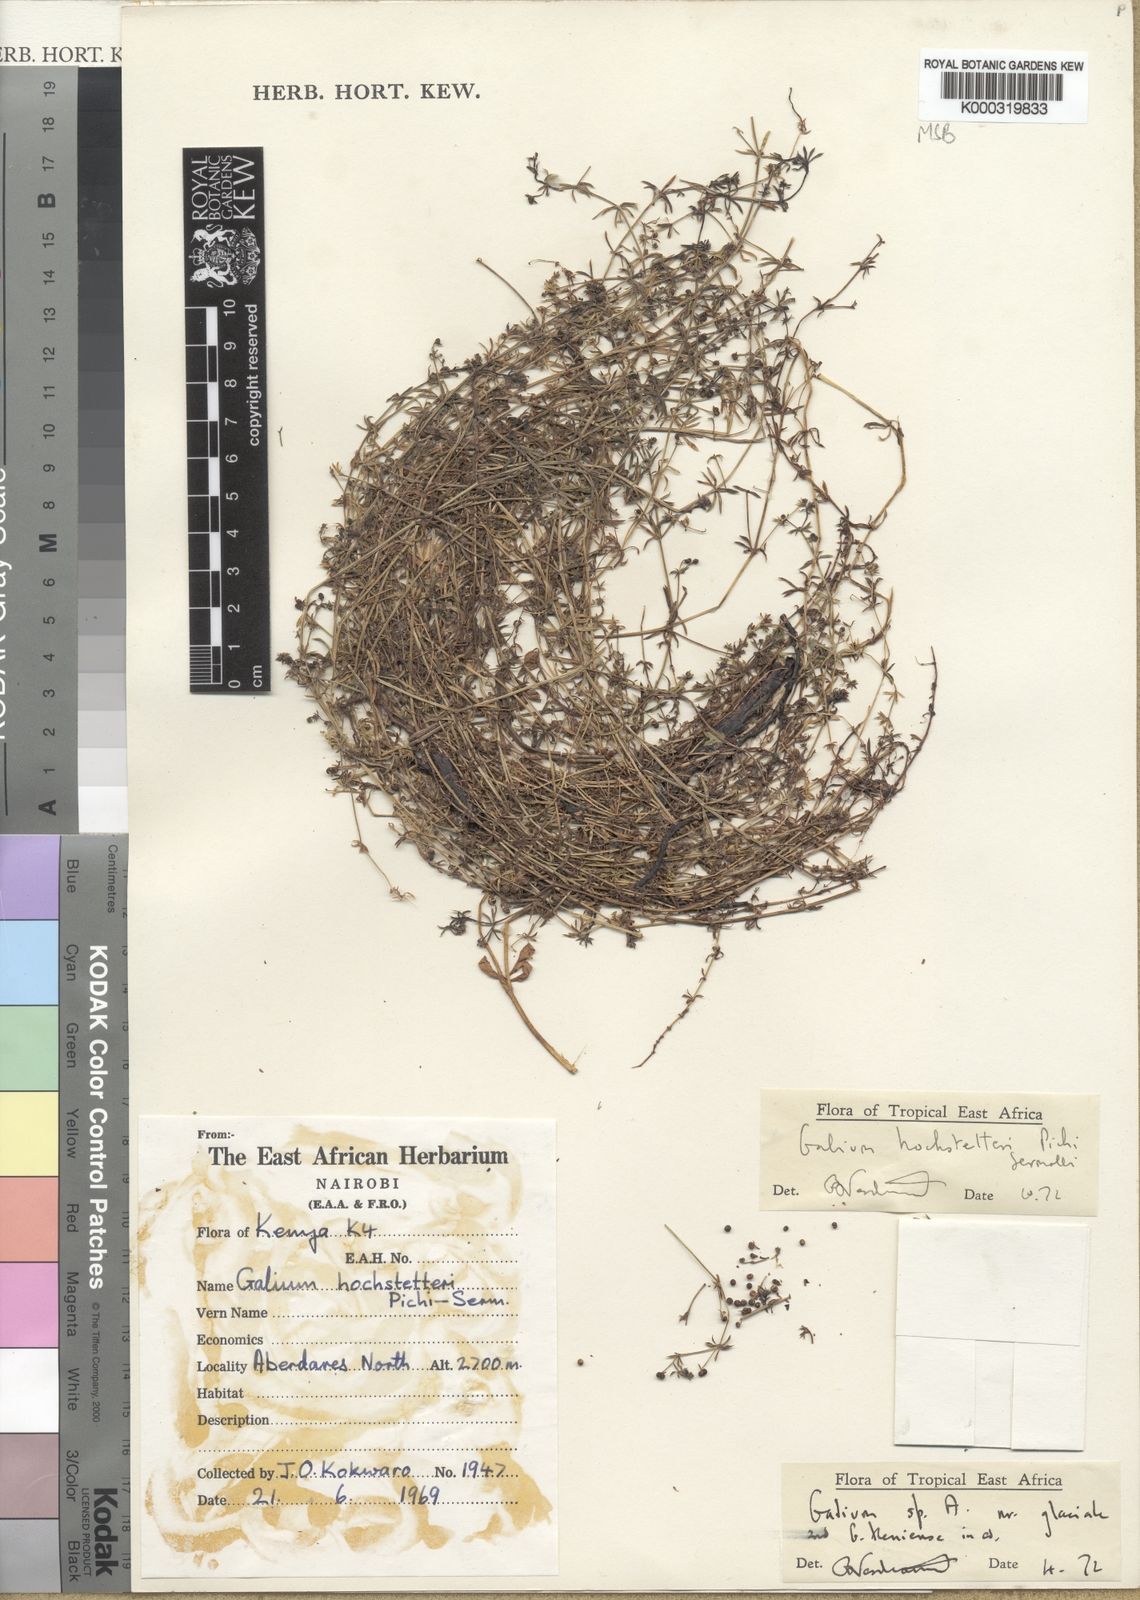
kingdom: Plantae
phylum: Tracheophyta
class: Magnoliopsida
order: Gentianales
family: Rubiaceae
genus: Galium
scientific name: Galium acrophyum
